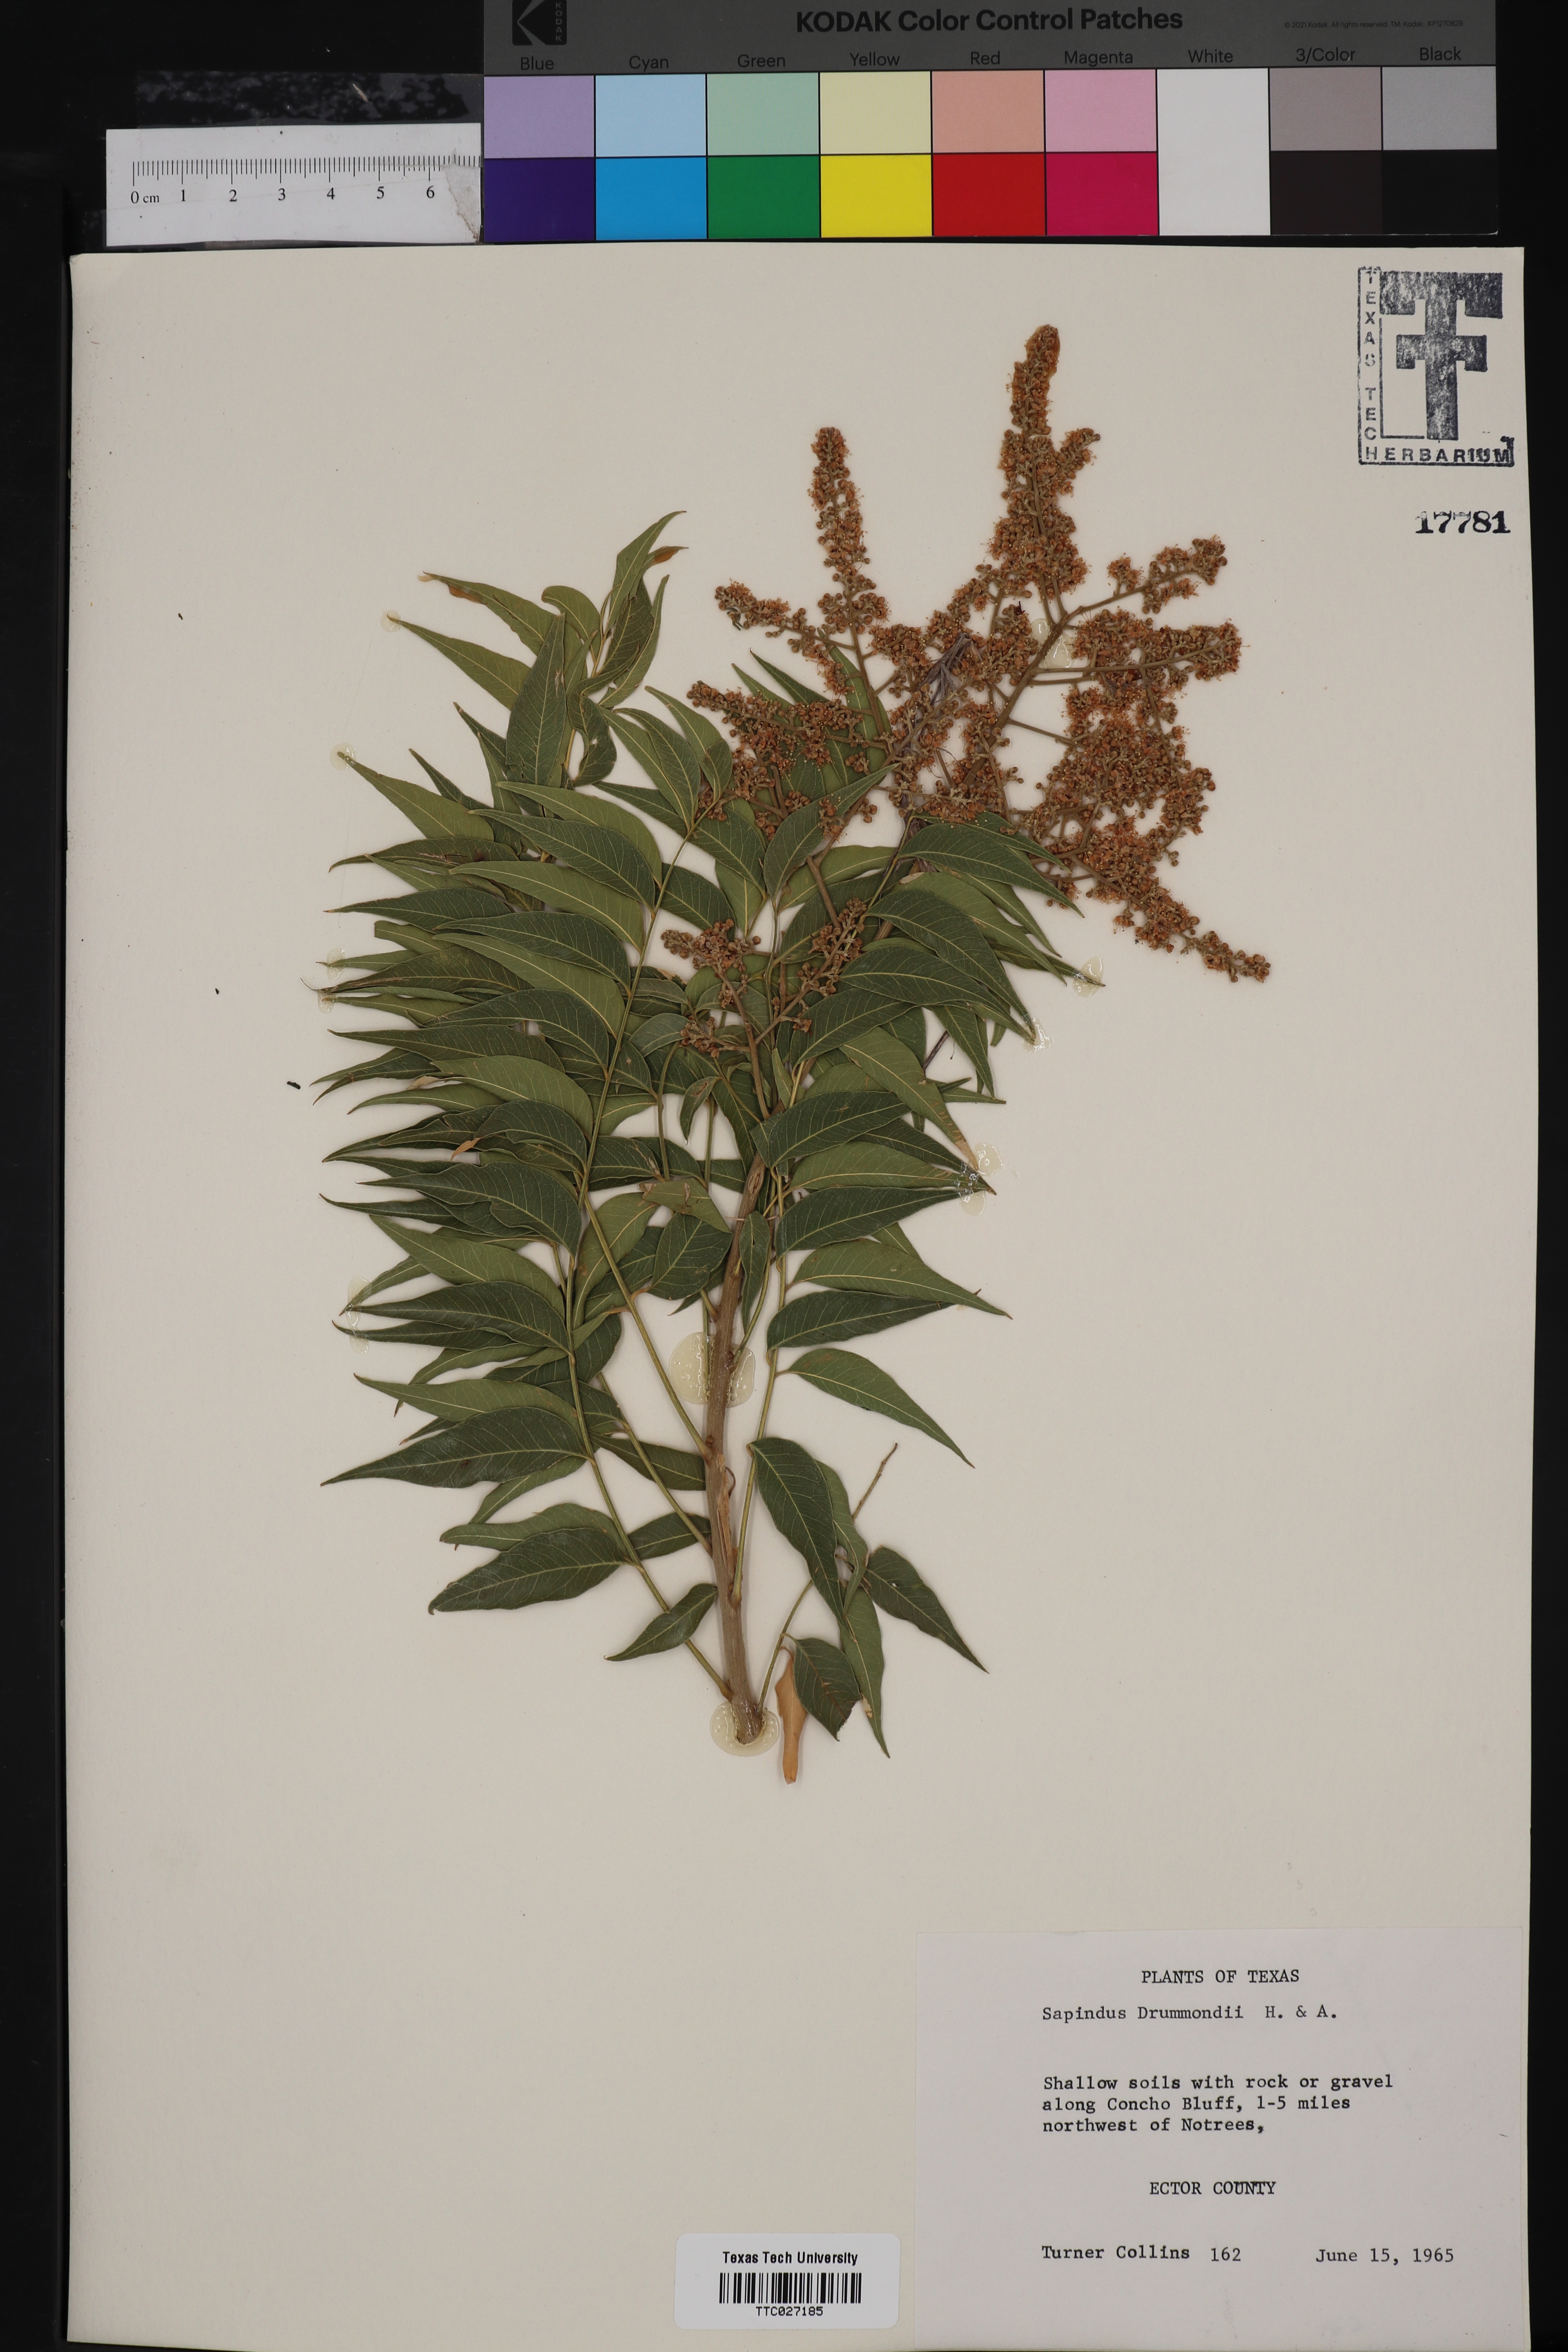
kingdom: Plantae
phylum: Tracheophyta
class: Magnoliopsida
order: Sapindales
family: Sapindaceae
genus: Sapindus
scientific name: Sapindus drummondii
